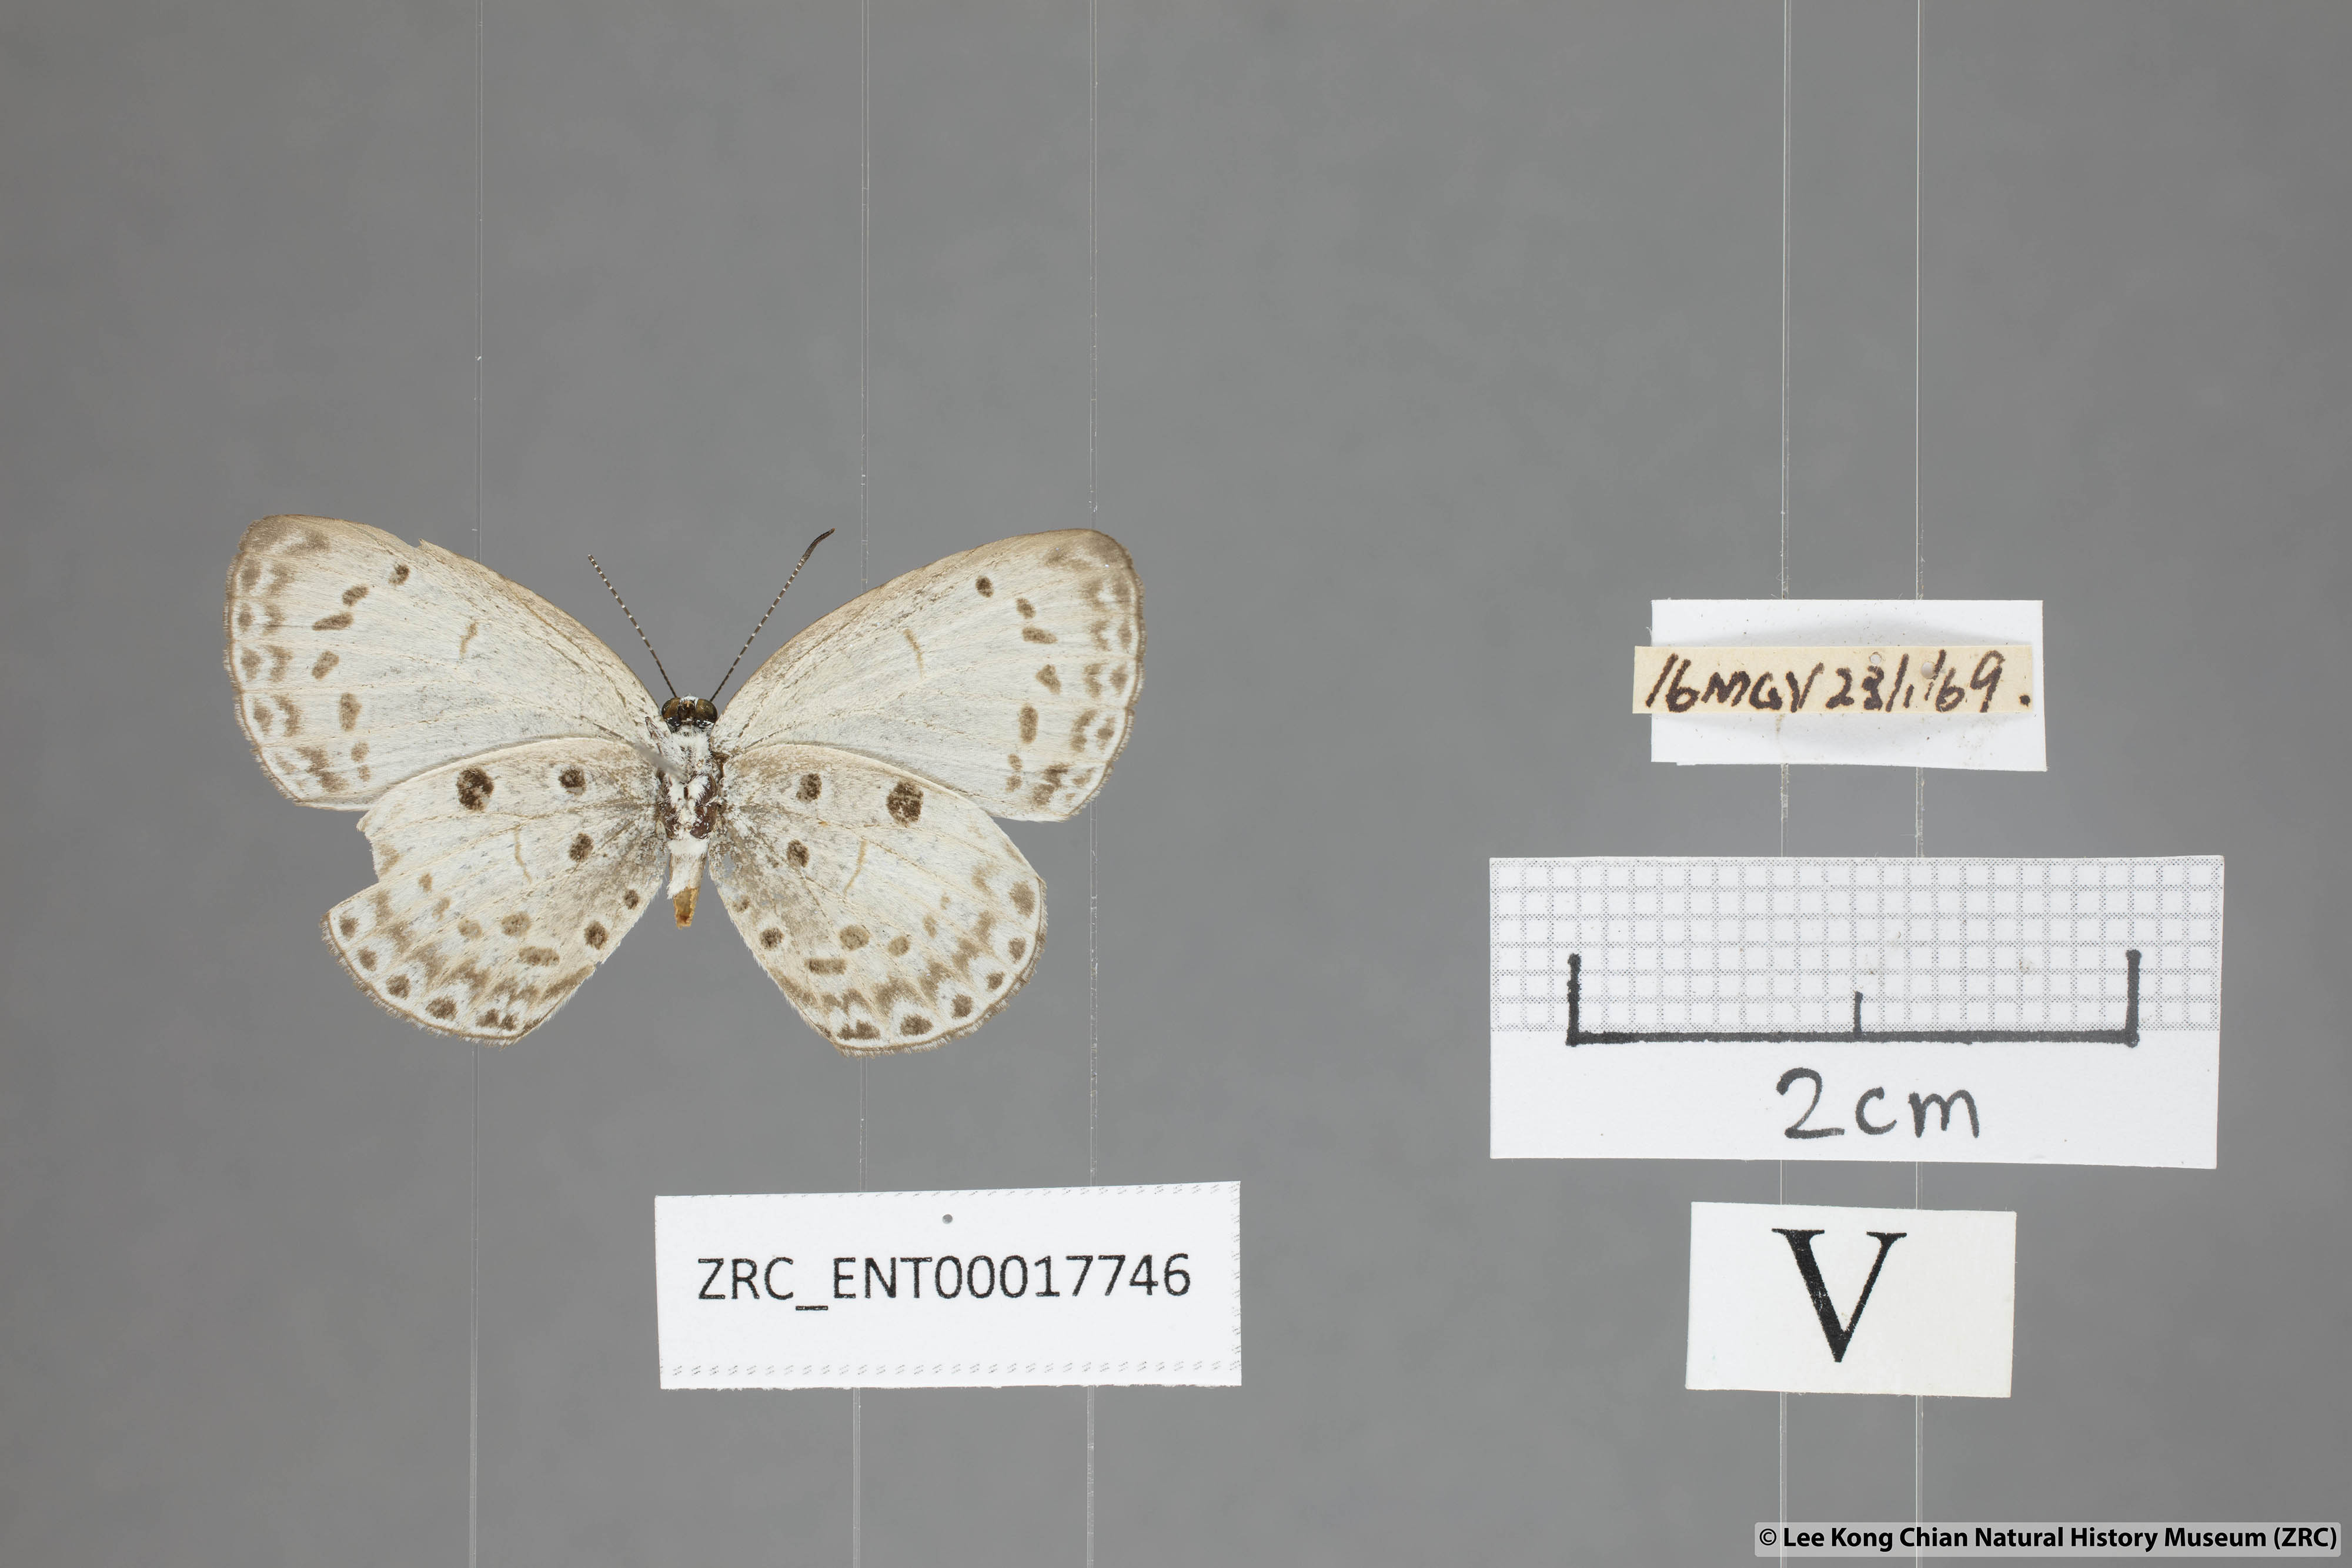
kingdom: Animalia
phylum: Arthropoda
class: Insecta
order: Lepidoptera
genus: Plautella
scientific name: Plautella
